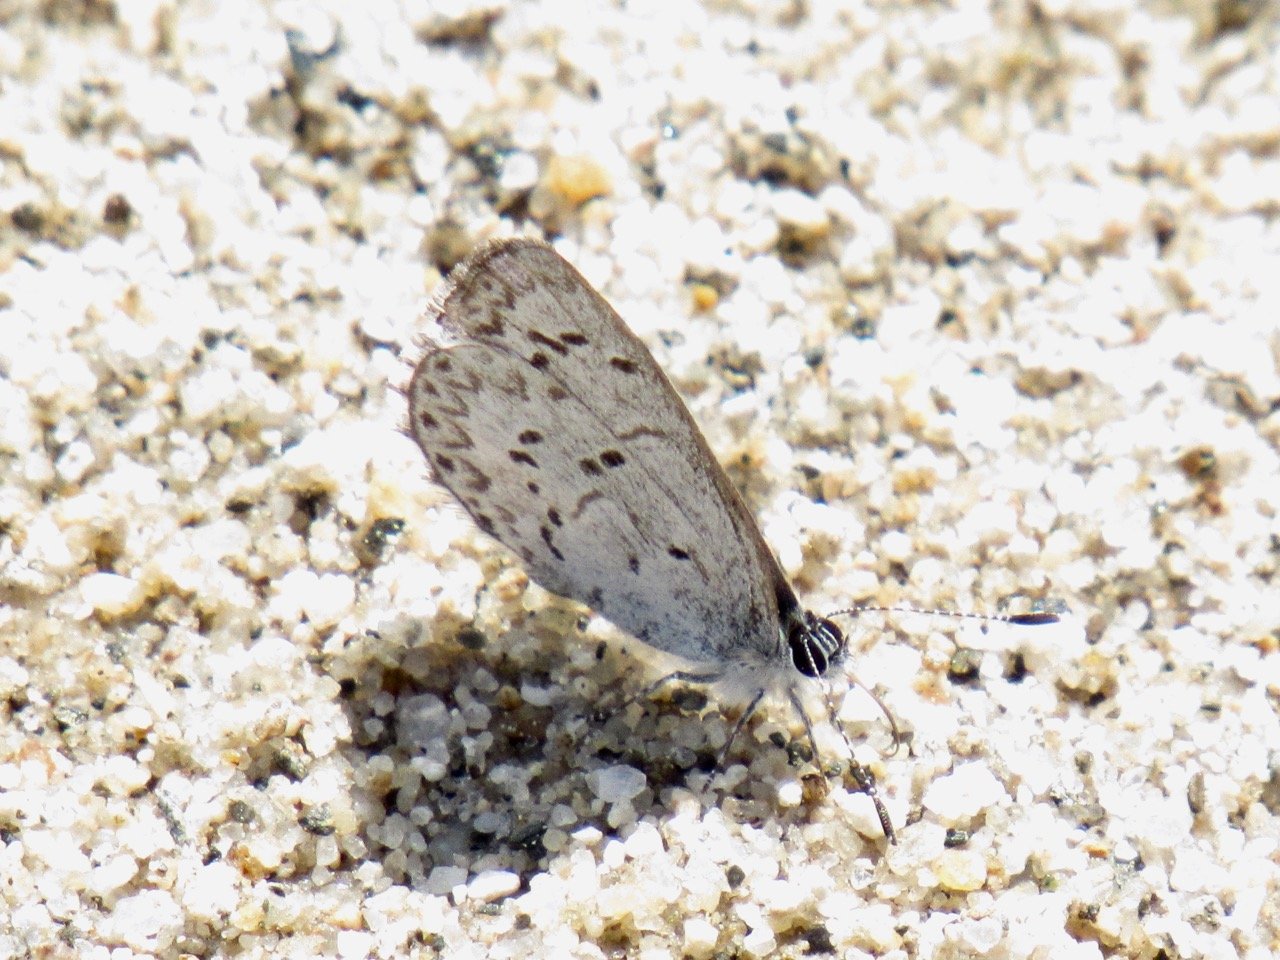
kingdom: Animalia
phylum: Arthropoda
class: Insecta
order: Lepidoptera
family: Lycaenidae
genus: Celastrina
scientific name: Celastrina lucia
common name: Northern Spring Azure
